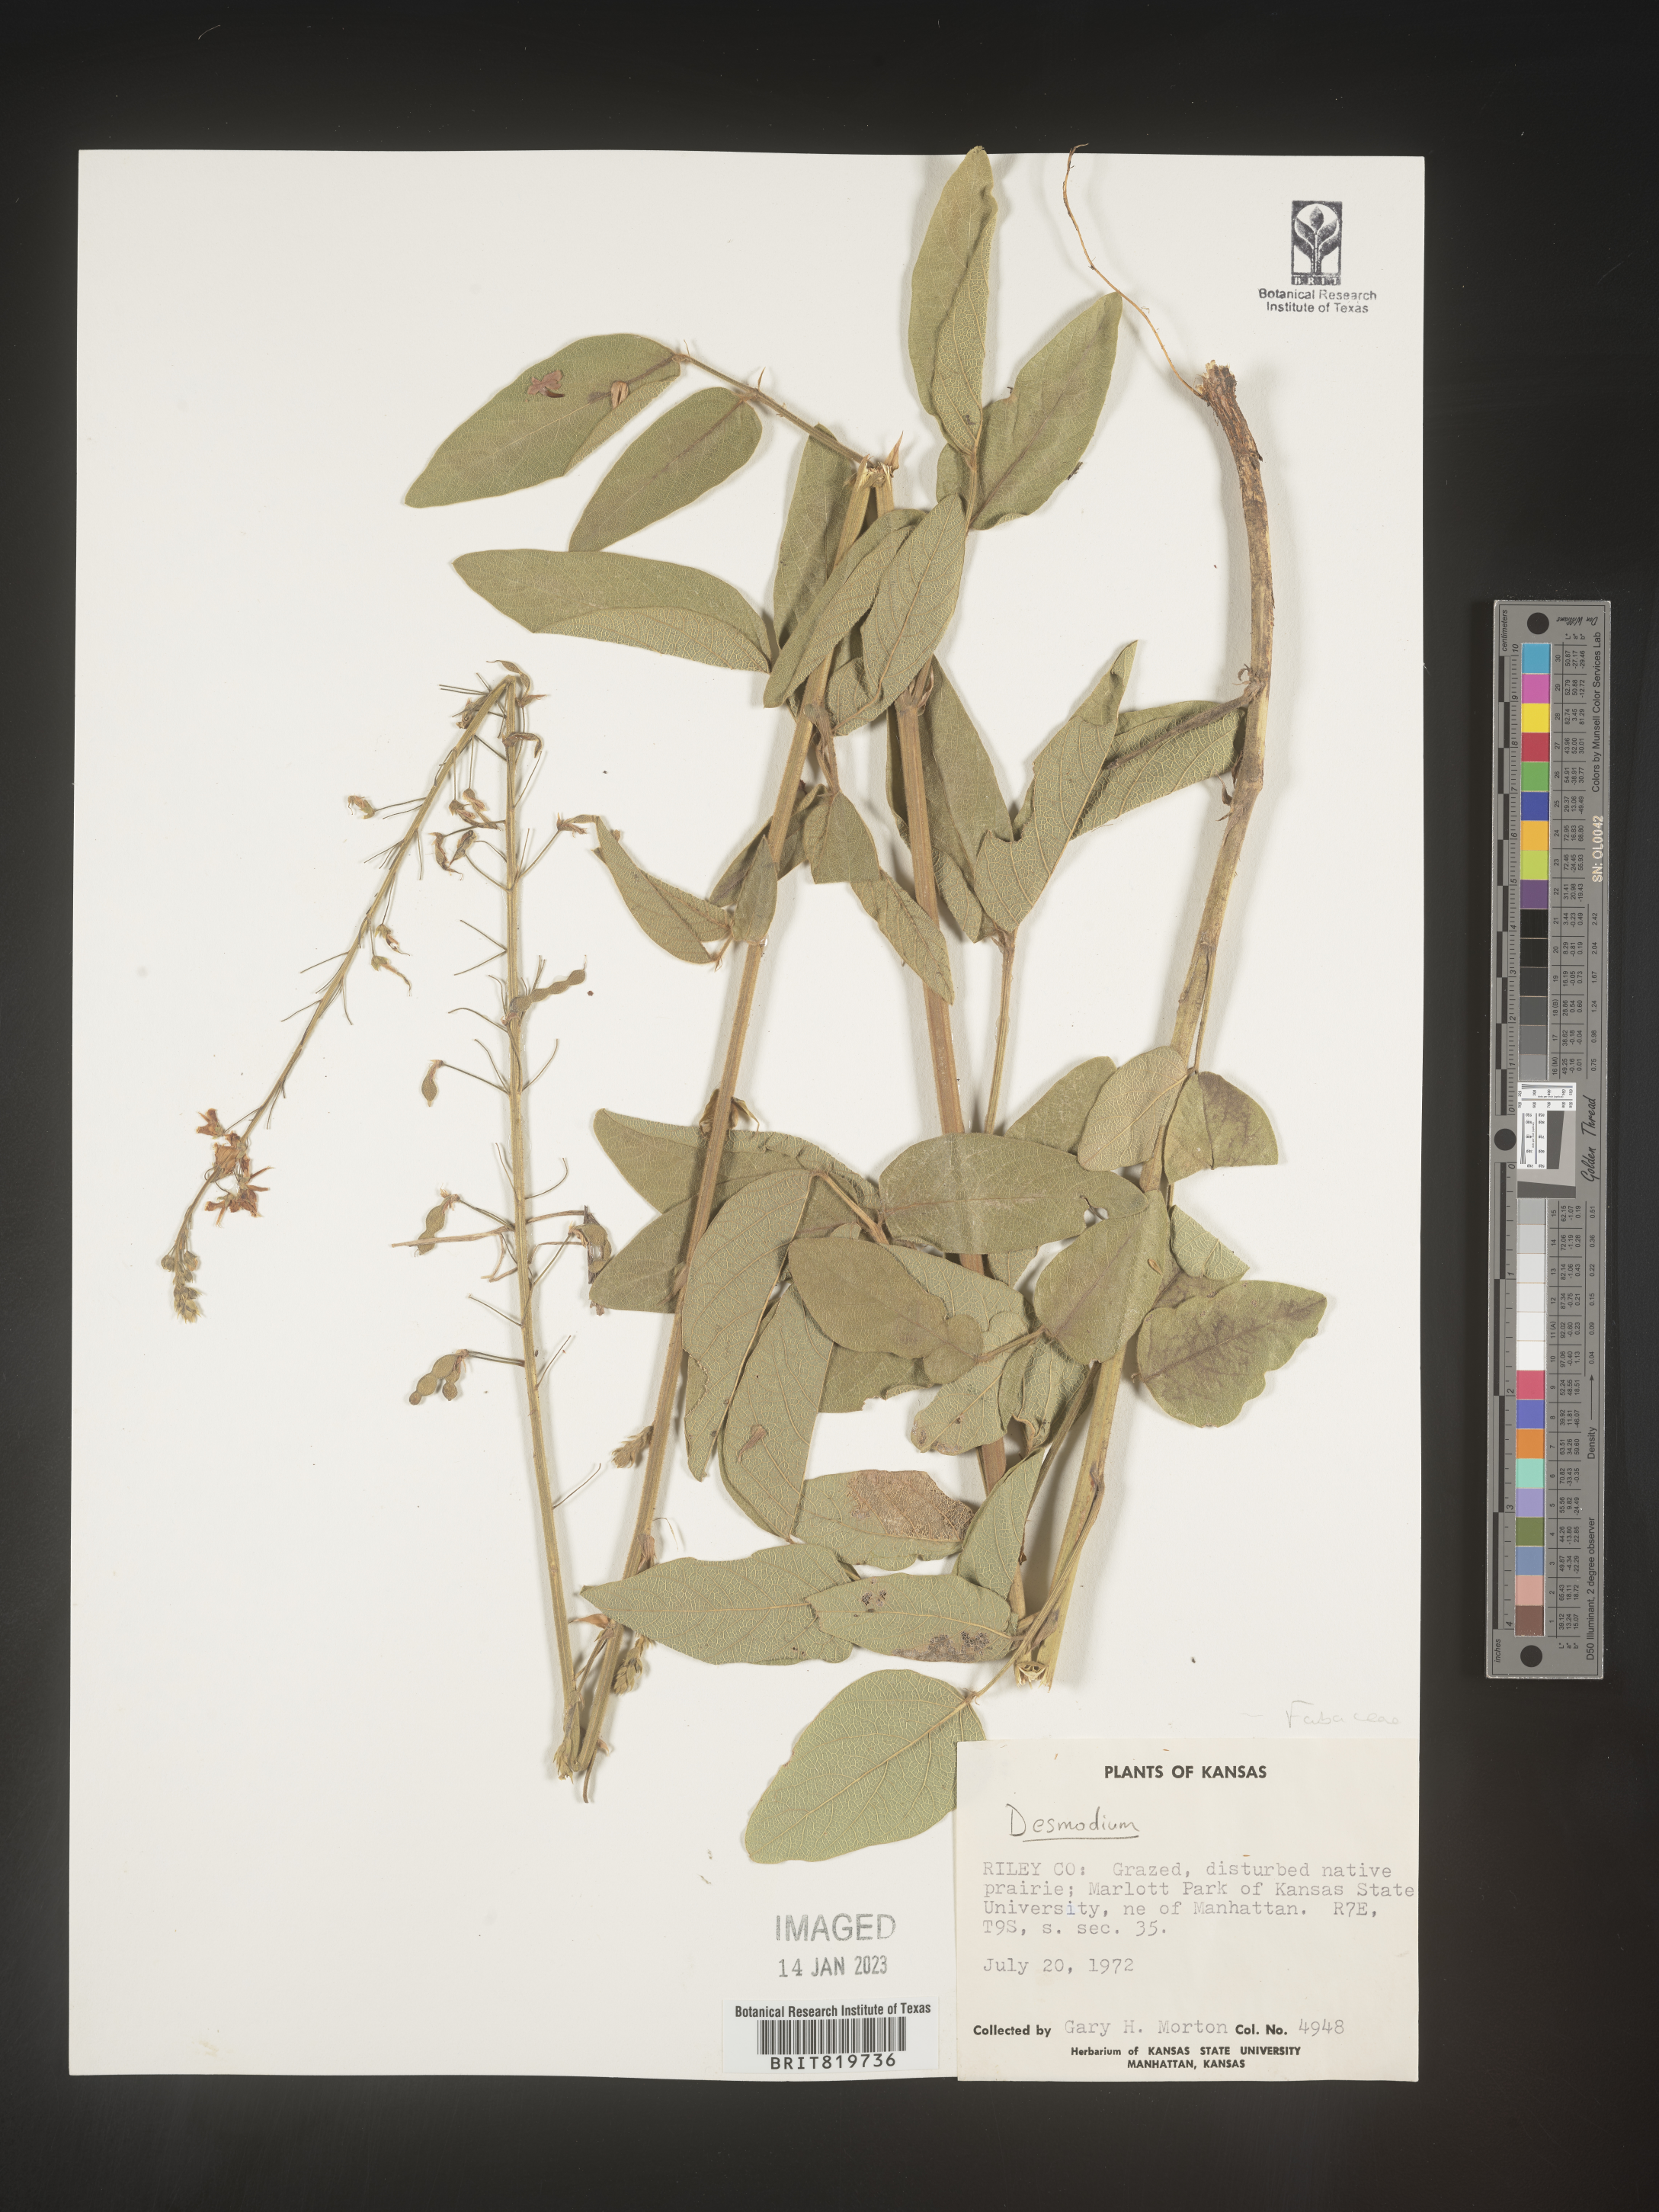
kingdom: Plantae
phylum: Tracheophyta
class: Magnoliopsida
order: Fabales
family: Fabaceae
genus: Desmodium
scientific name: Desmodium
